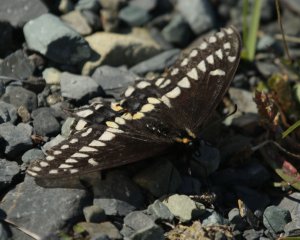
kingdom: Animalia
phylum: Arthropoda
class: Insecta
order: Lepidoptera
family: Papilionidae
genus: Papilio
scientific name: Papilio brevicauda
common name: Short-tailed Swallowtail
